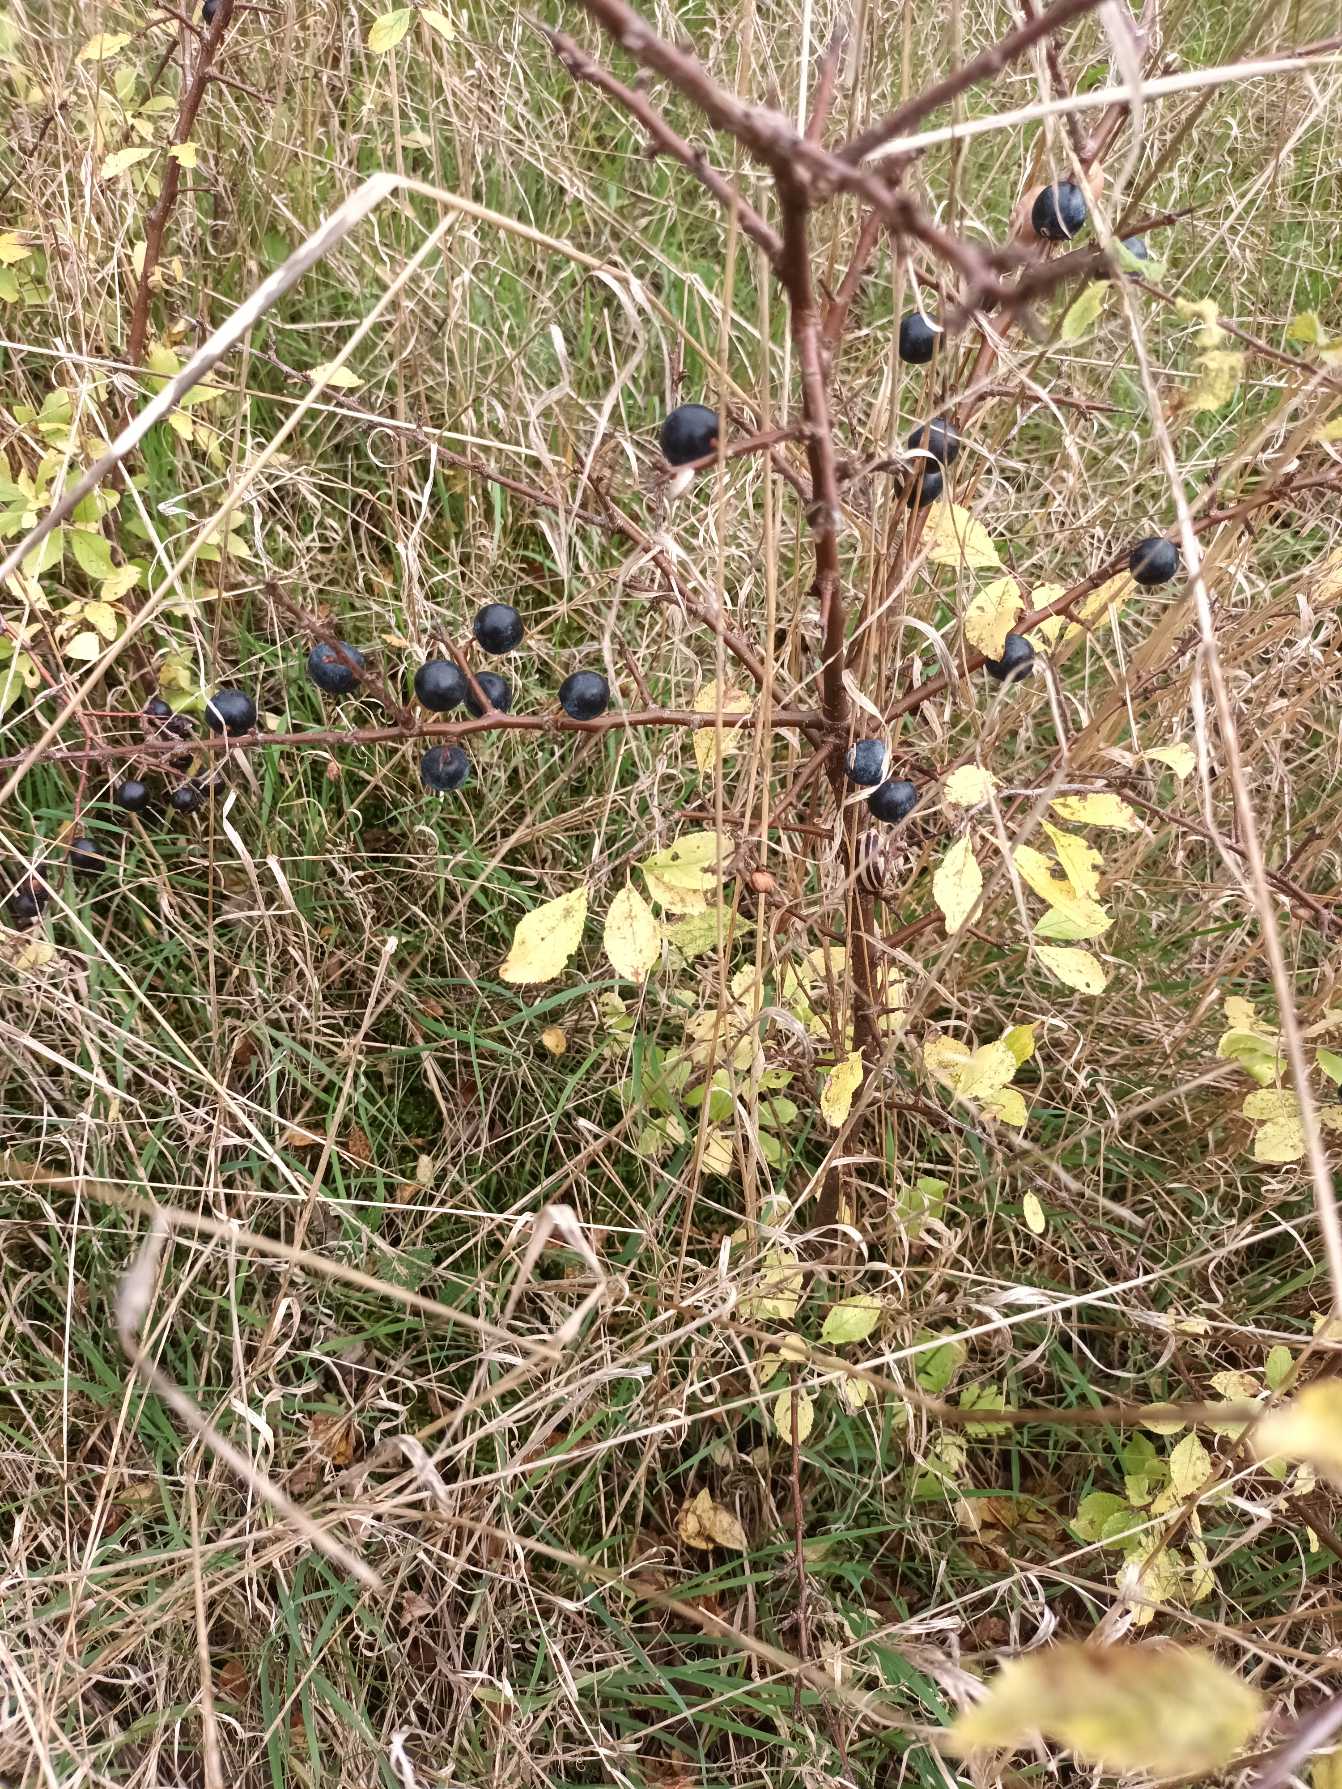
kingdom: Plantae
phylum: Tracheophyta
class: Magnoliopsida
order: Rosales
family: Rosaceae
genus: Prunus
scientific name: Prunus spinosa
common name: Slåen
